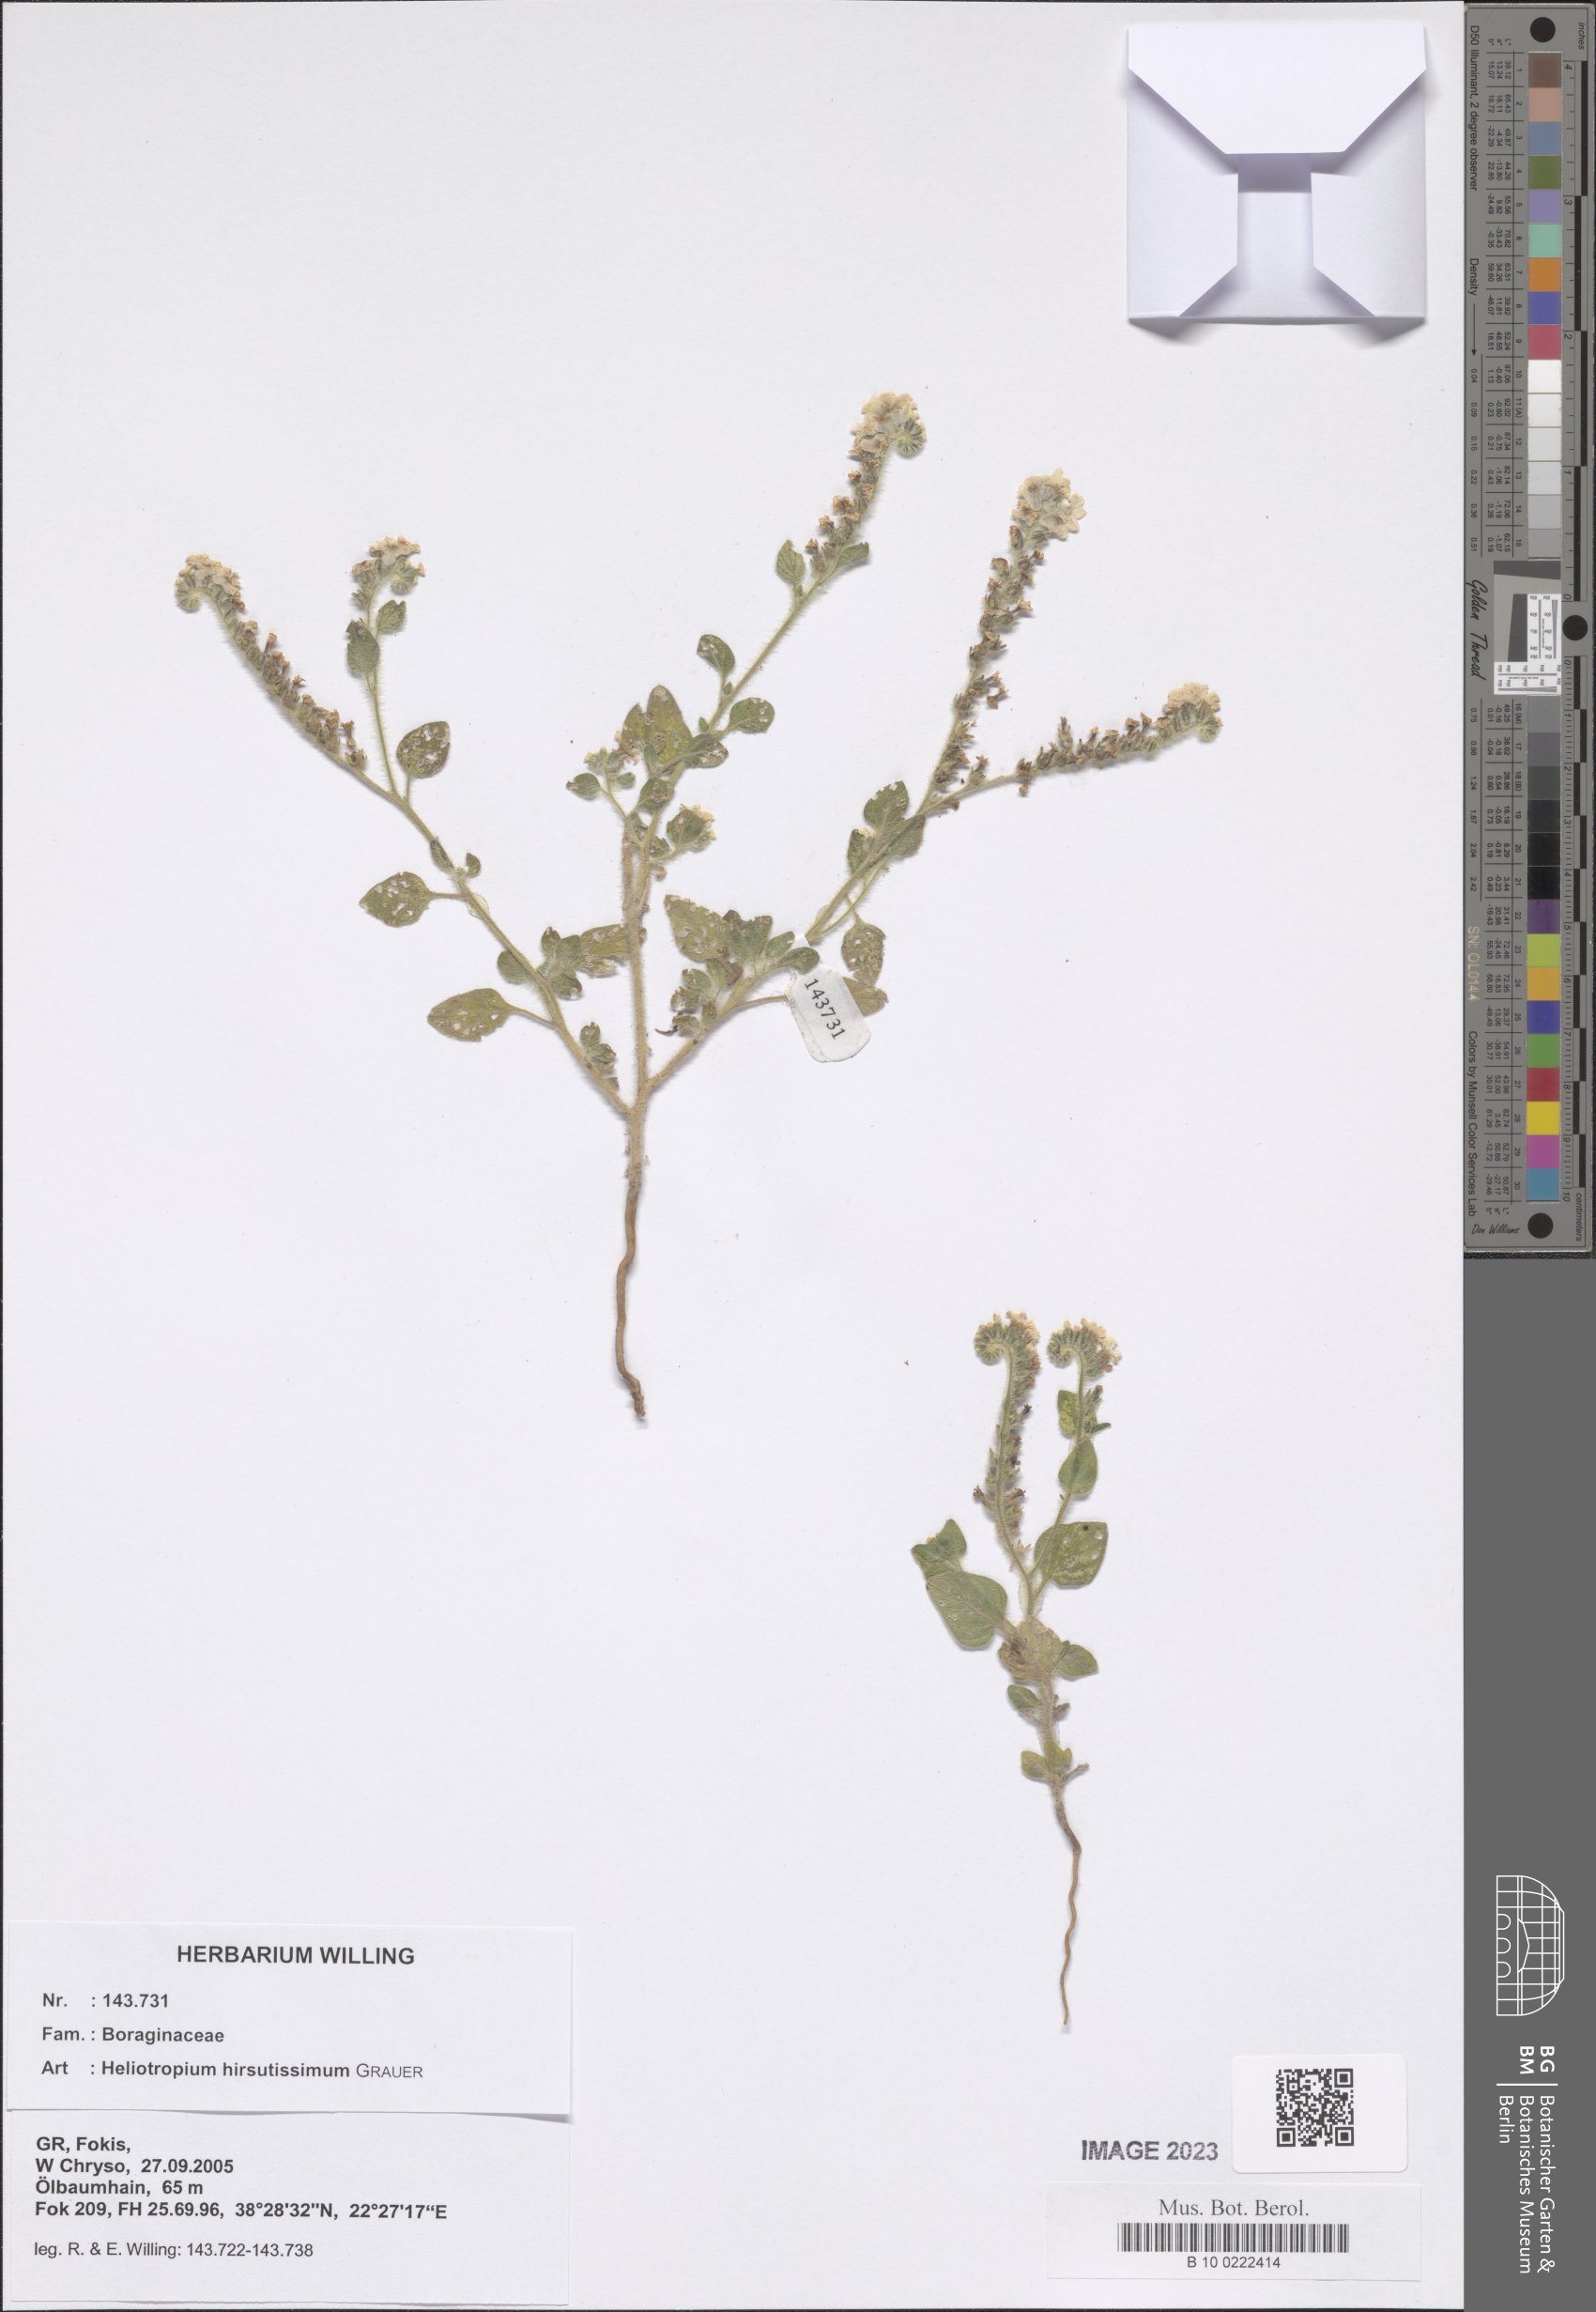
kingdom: Plantae
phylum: Tracheophyta
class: Magnoliopsida
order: Boraginales
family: Heliotropiaceae
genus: Heliotropium
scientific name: Heliotropium hirsutissimum
